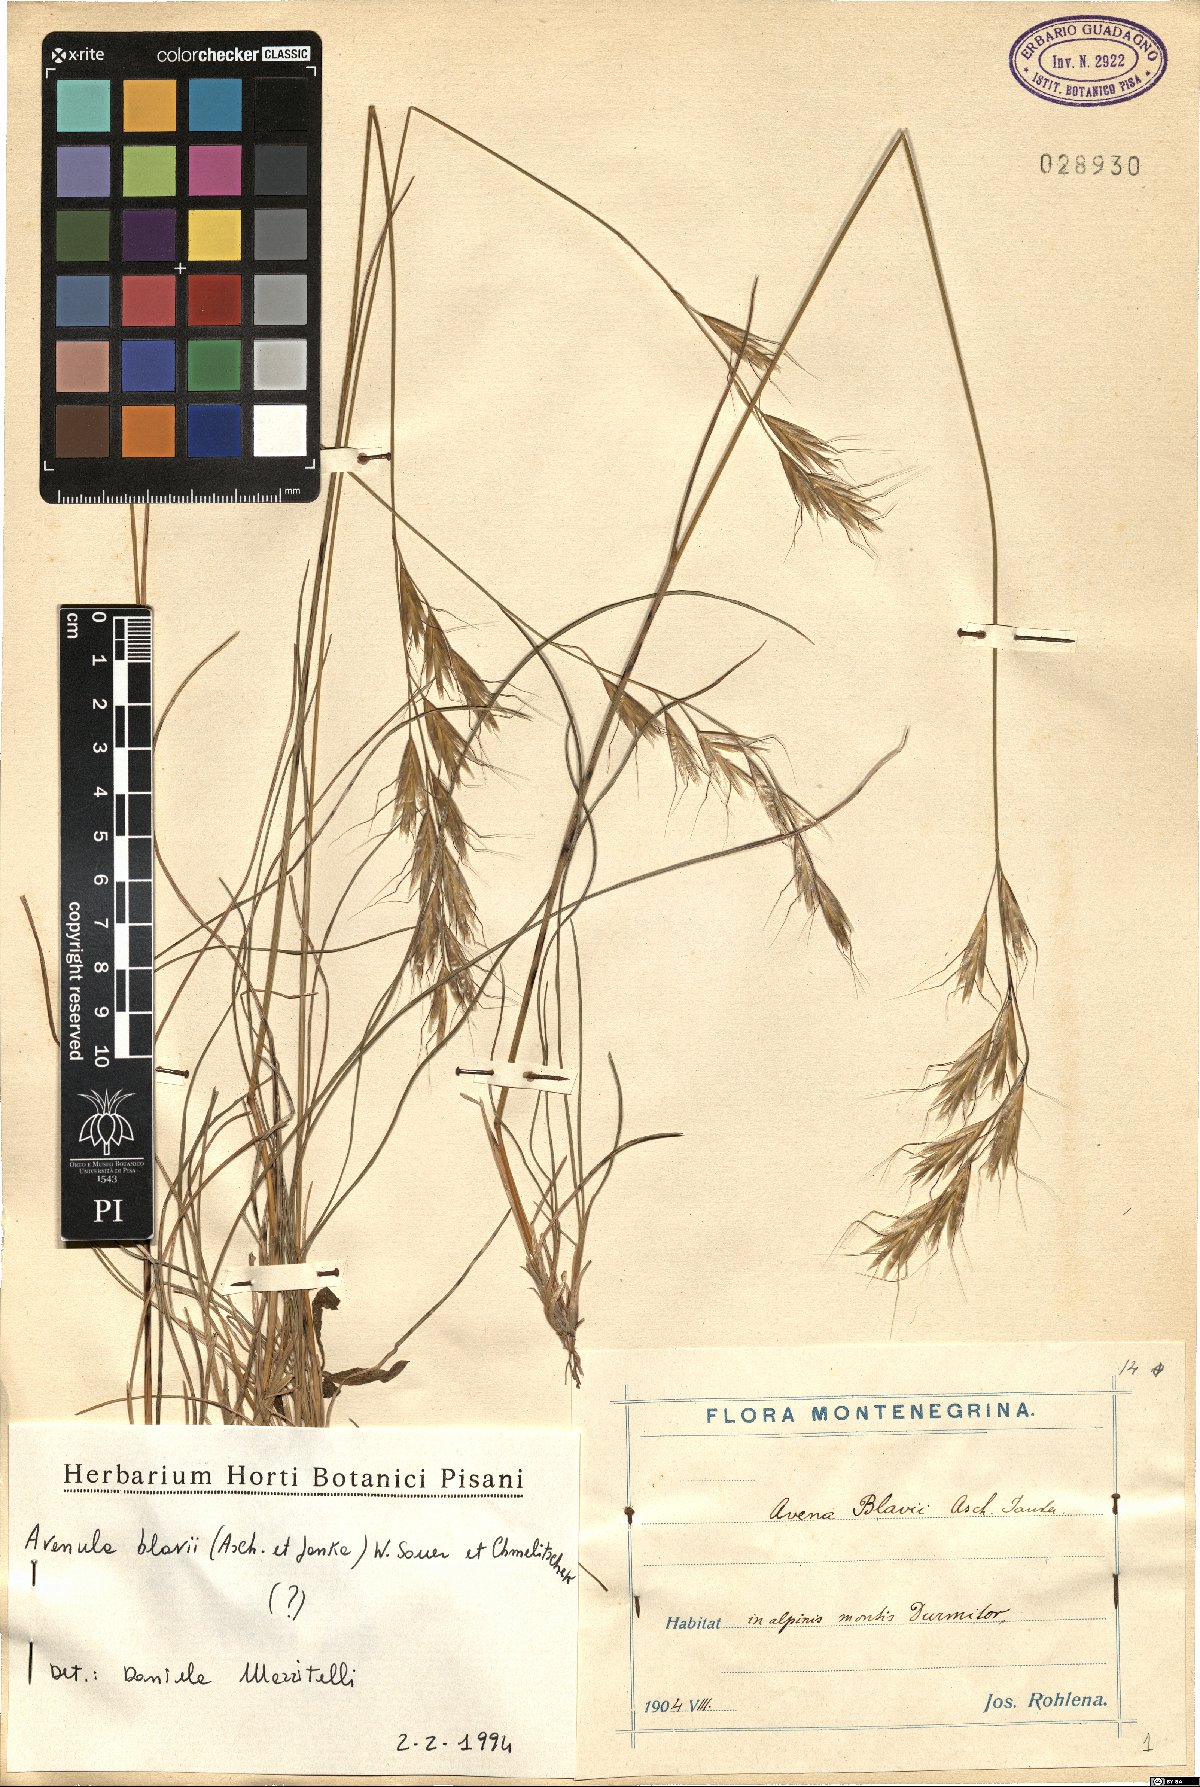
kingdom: Plantae
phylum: Tracheophyta
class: Liliopsida
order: Poales
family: Poaceae
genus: Helictochloa
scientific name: Helictochloa blaui
